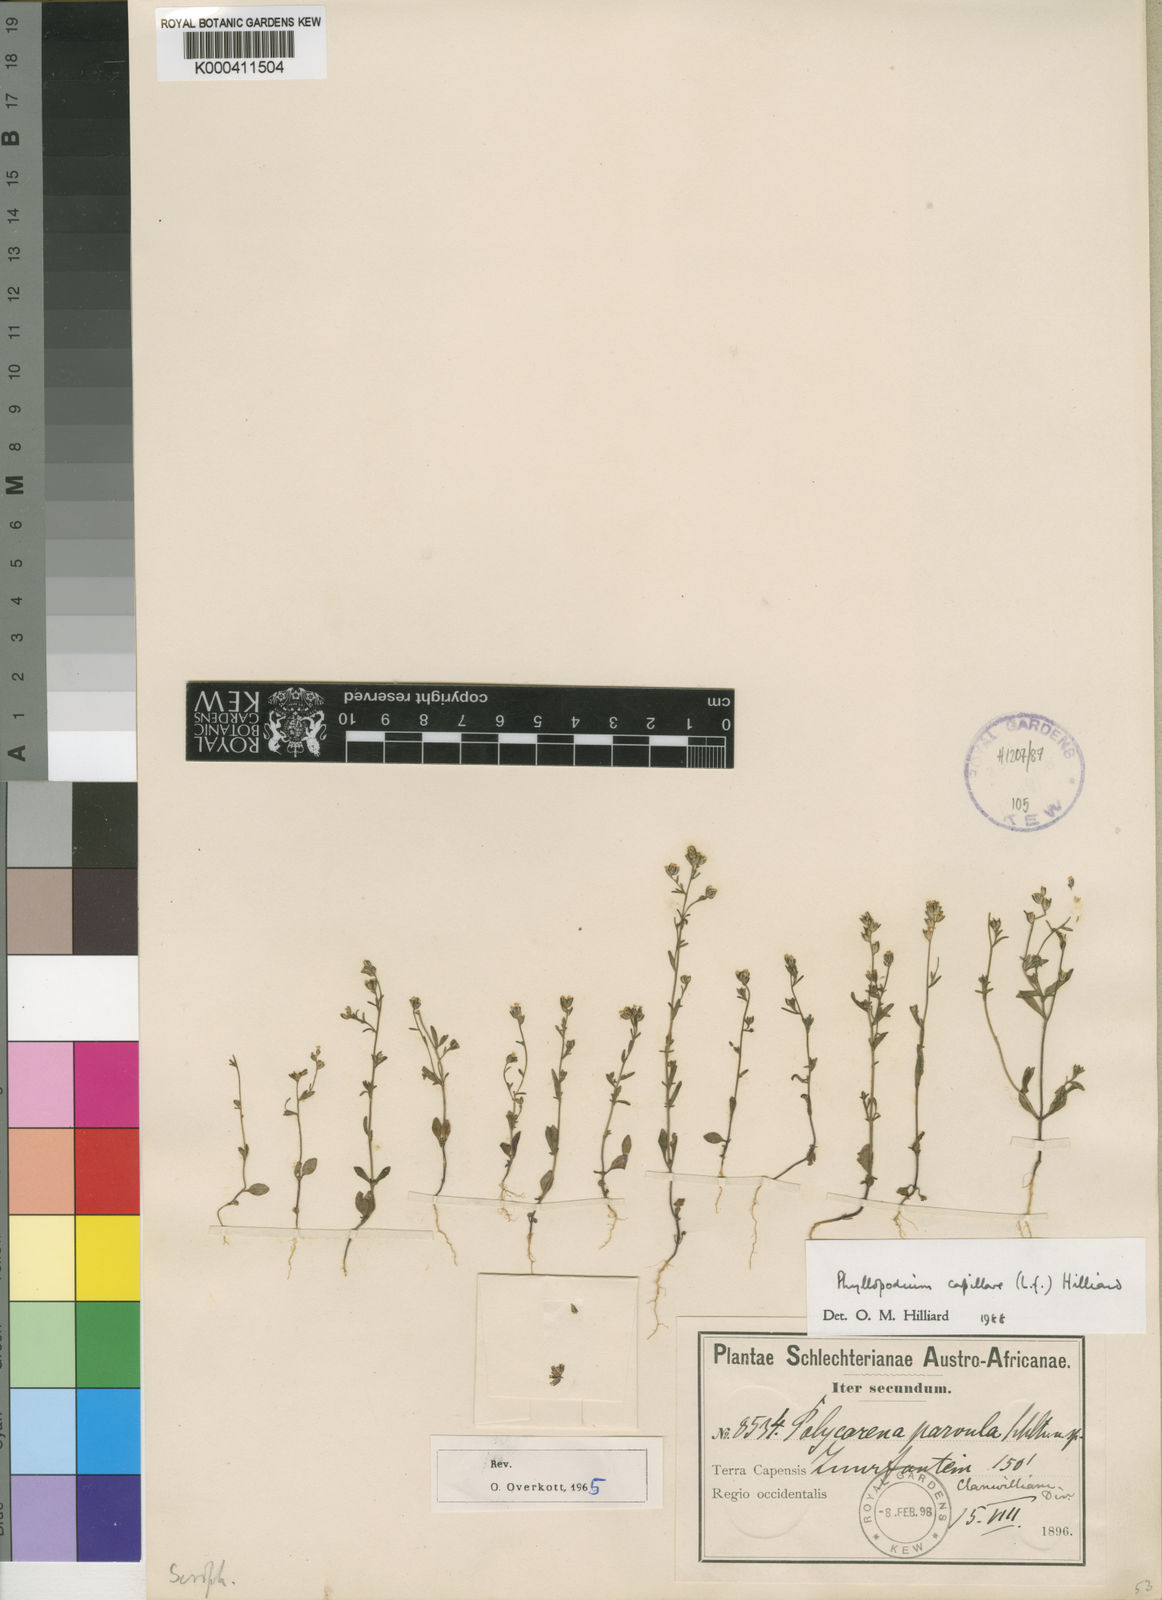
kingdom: Plantae
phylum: Tracheophyta
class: Magnoliopsida
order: Lamiales
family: Scrophulariaceae
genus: Phyllopodium
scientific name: Phyllopodium capillare
